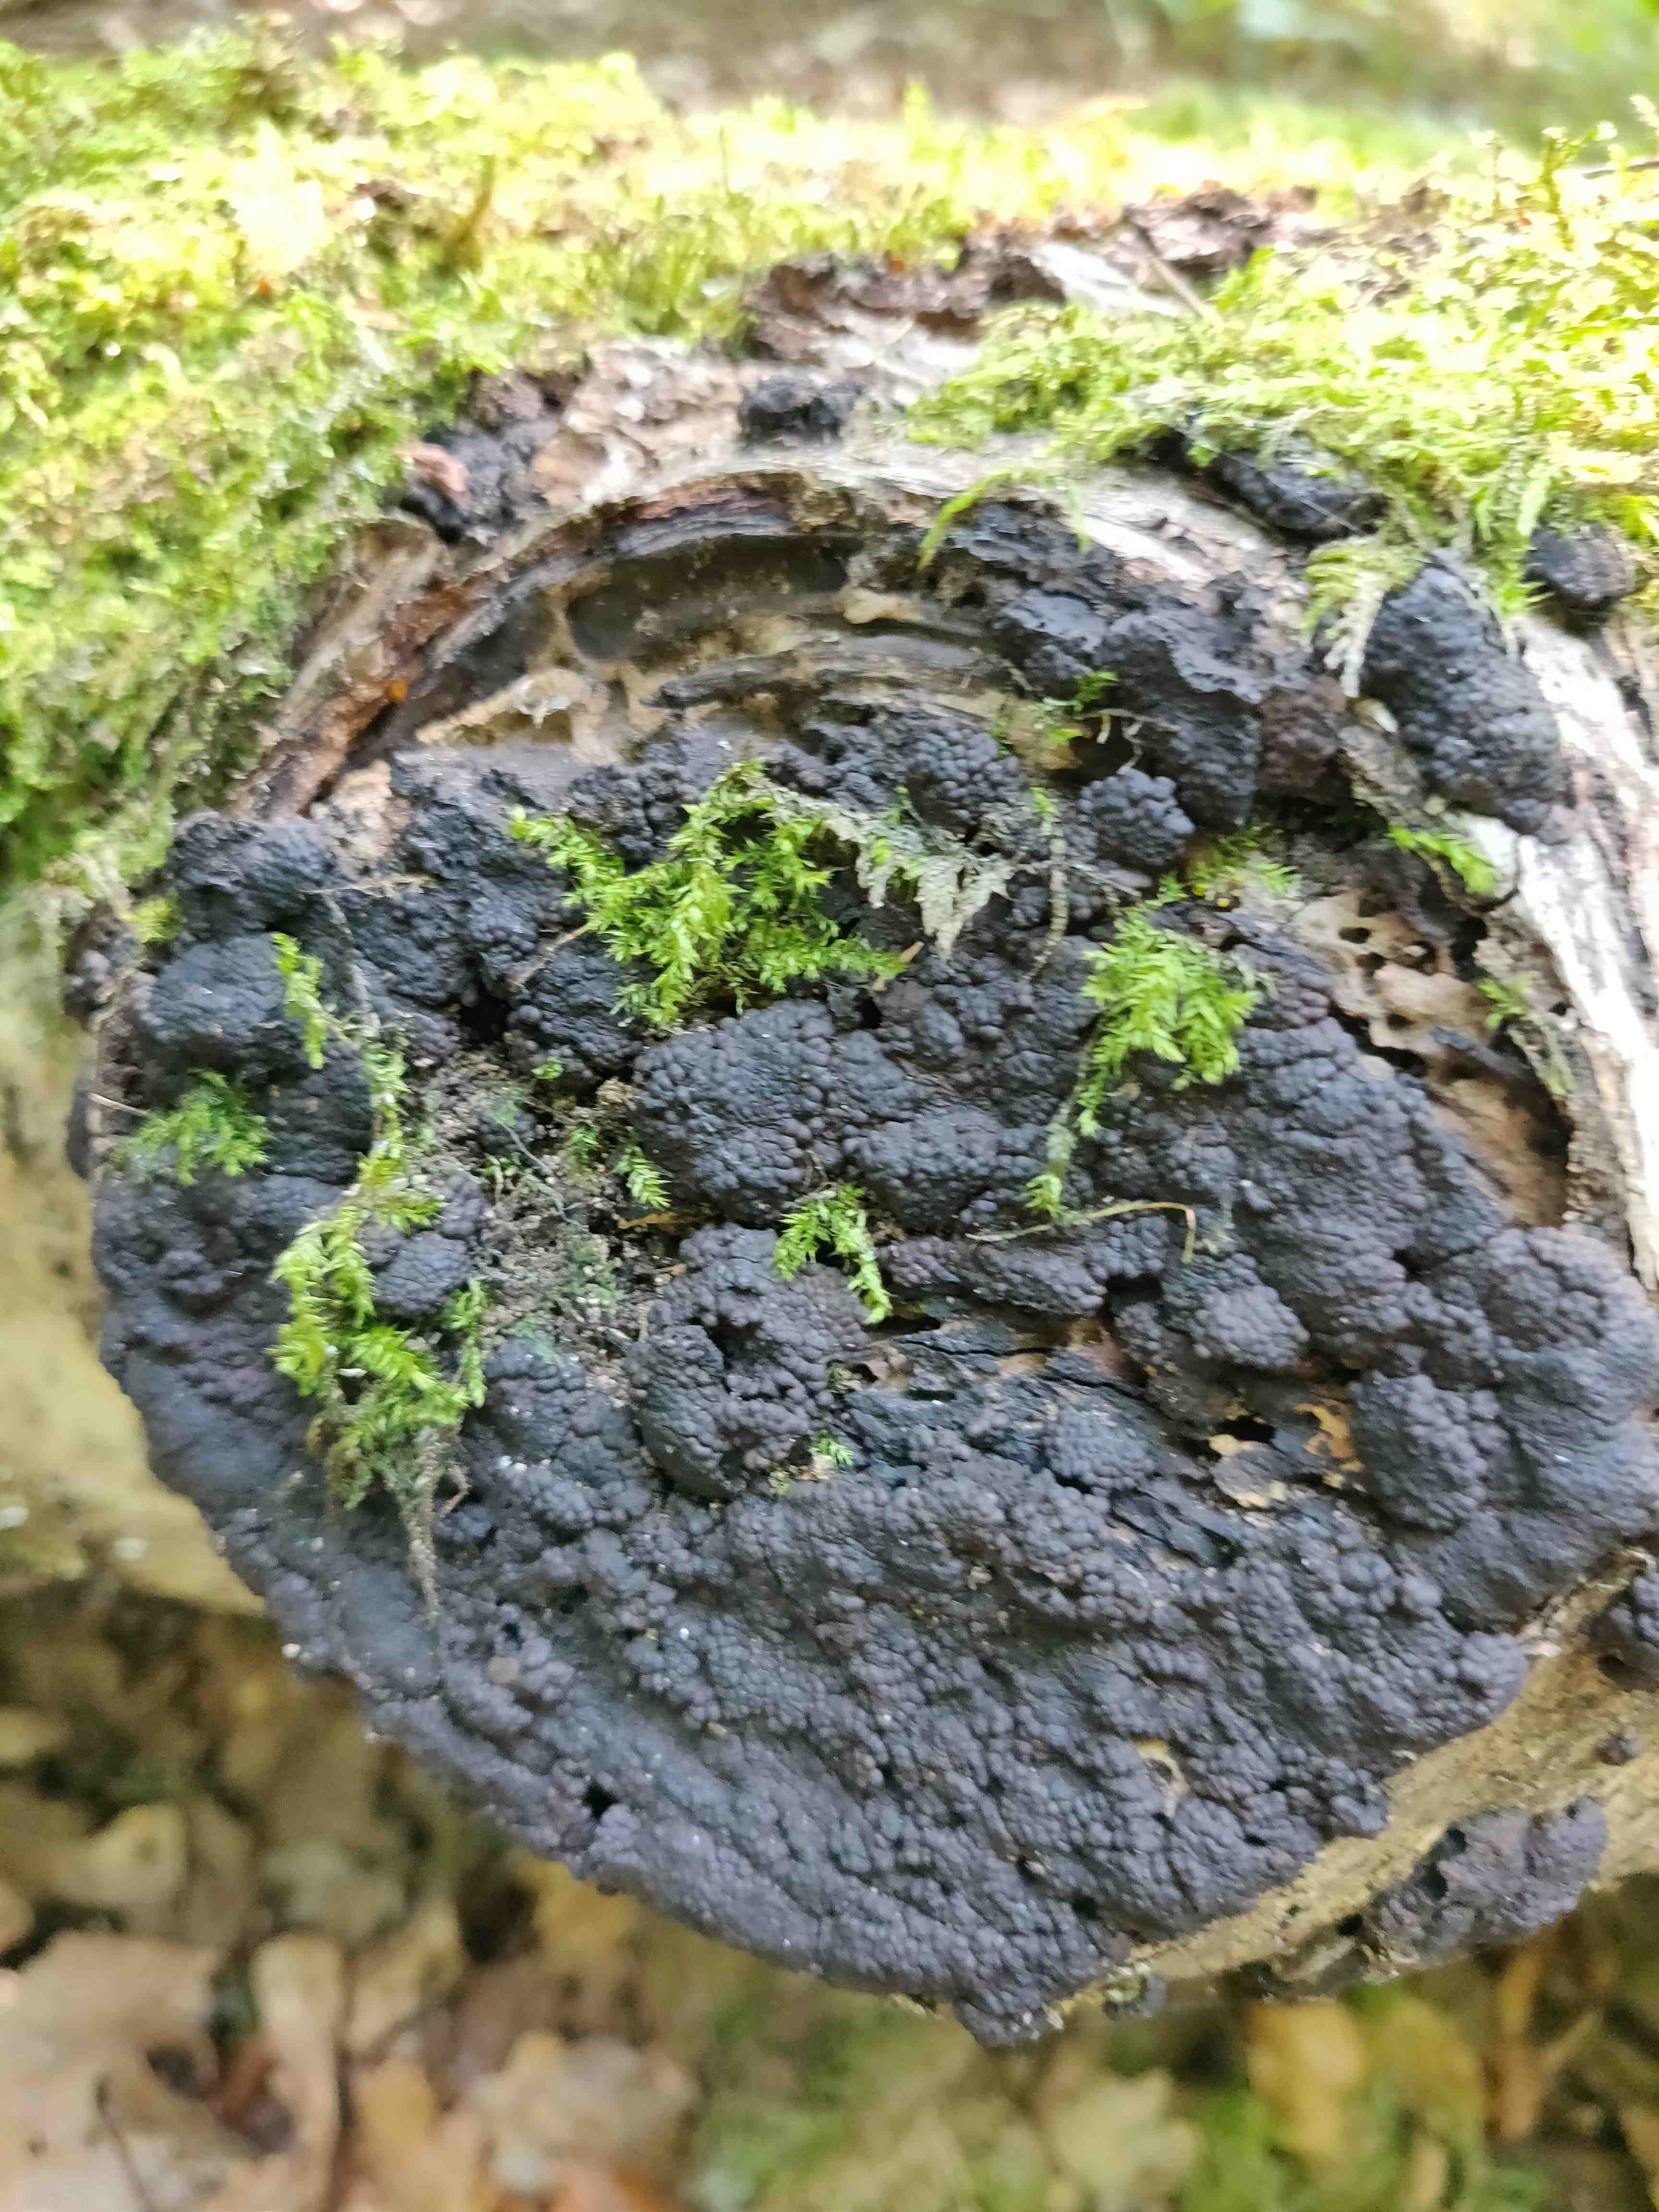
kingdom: Fungi
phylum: Ascomycota
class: Sordariomycetes
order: Xylariales
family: Hypoxylaceae
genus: Jackrogersella
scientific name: Jackrogersella multiformis
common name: foranderlig kulbær
